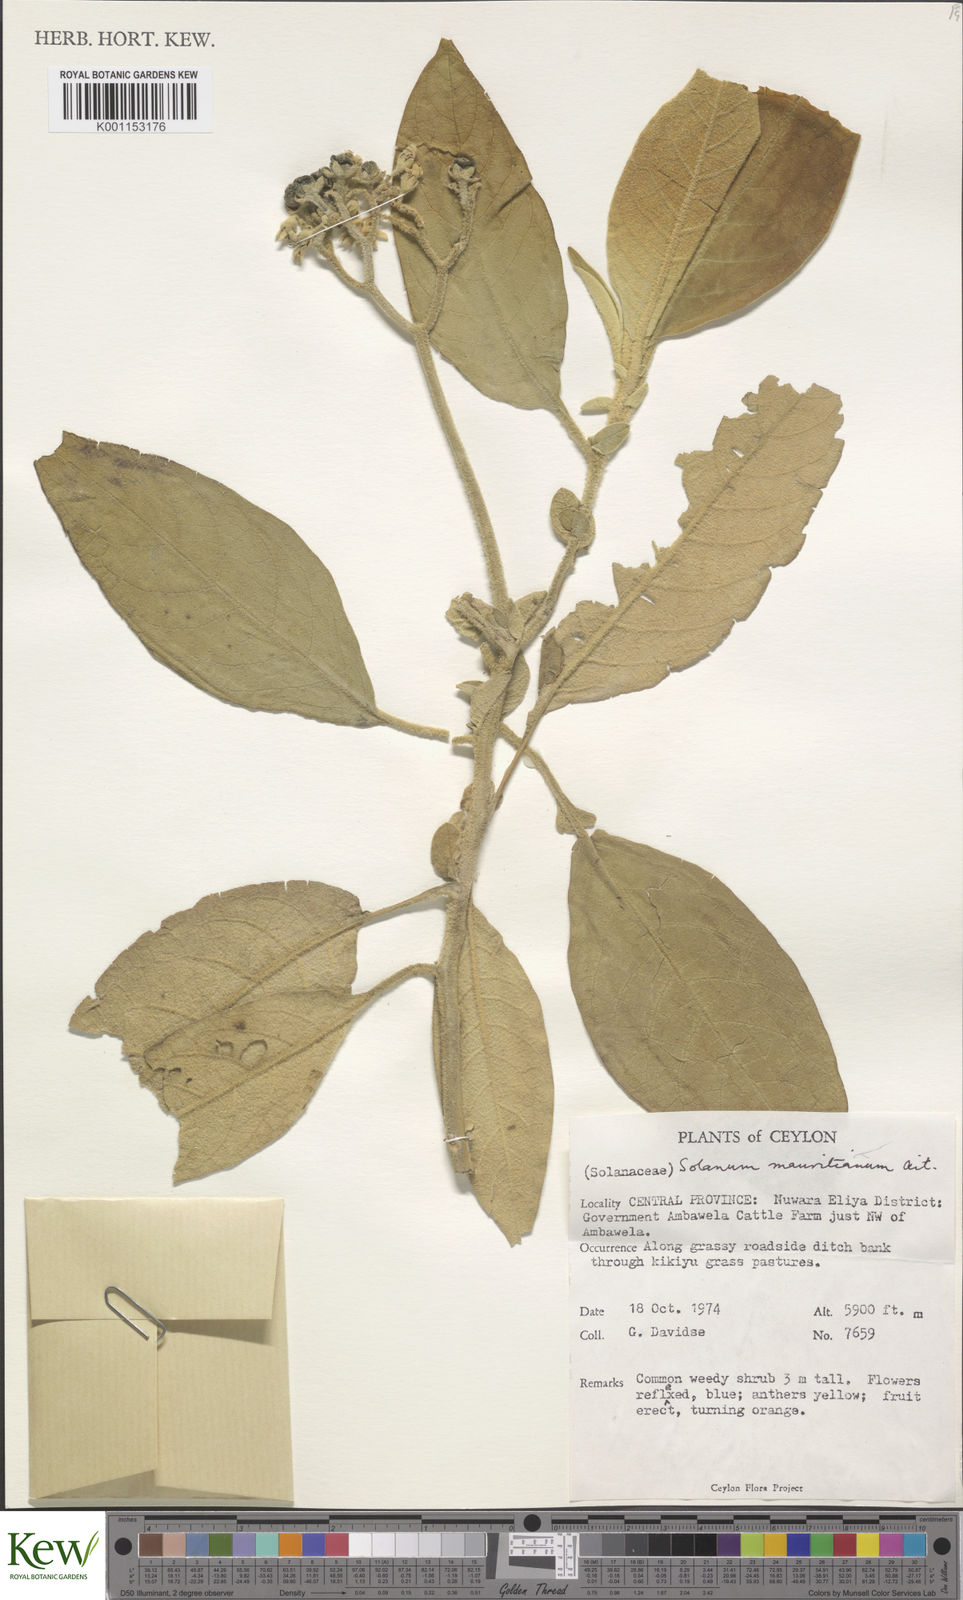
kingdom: Plantae
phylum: Tracheophyta
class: Magnoliopsida
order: Solanales
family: Solanaceae
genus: Solanum
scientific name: Solanum mauritianum
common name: Earleaf nightshade
